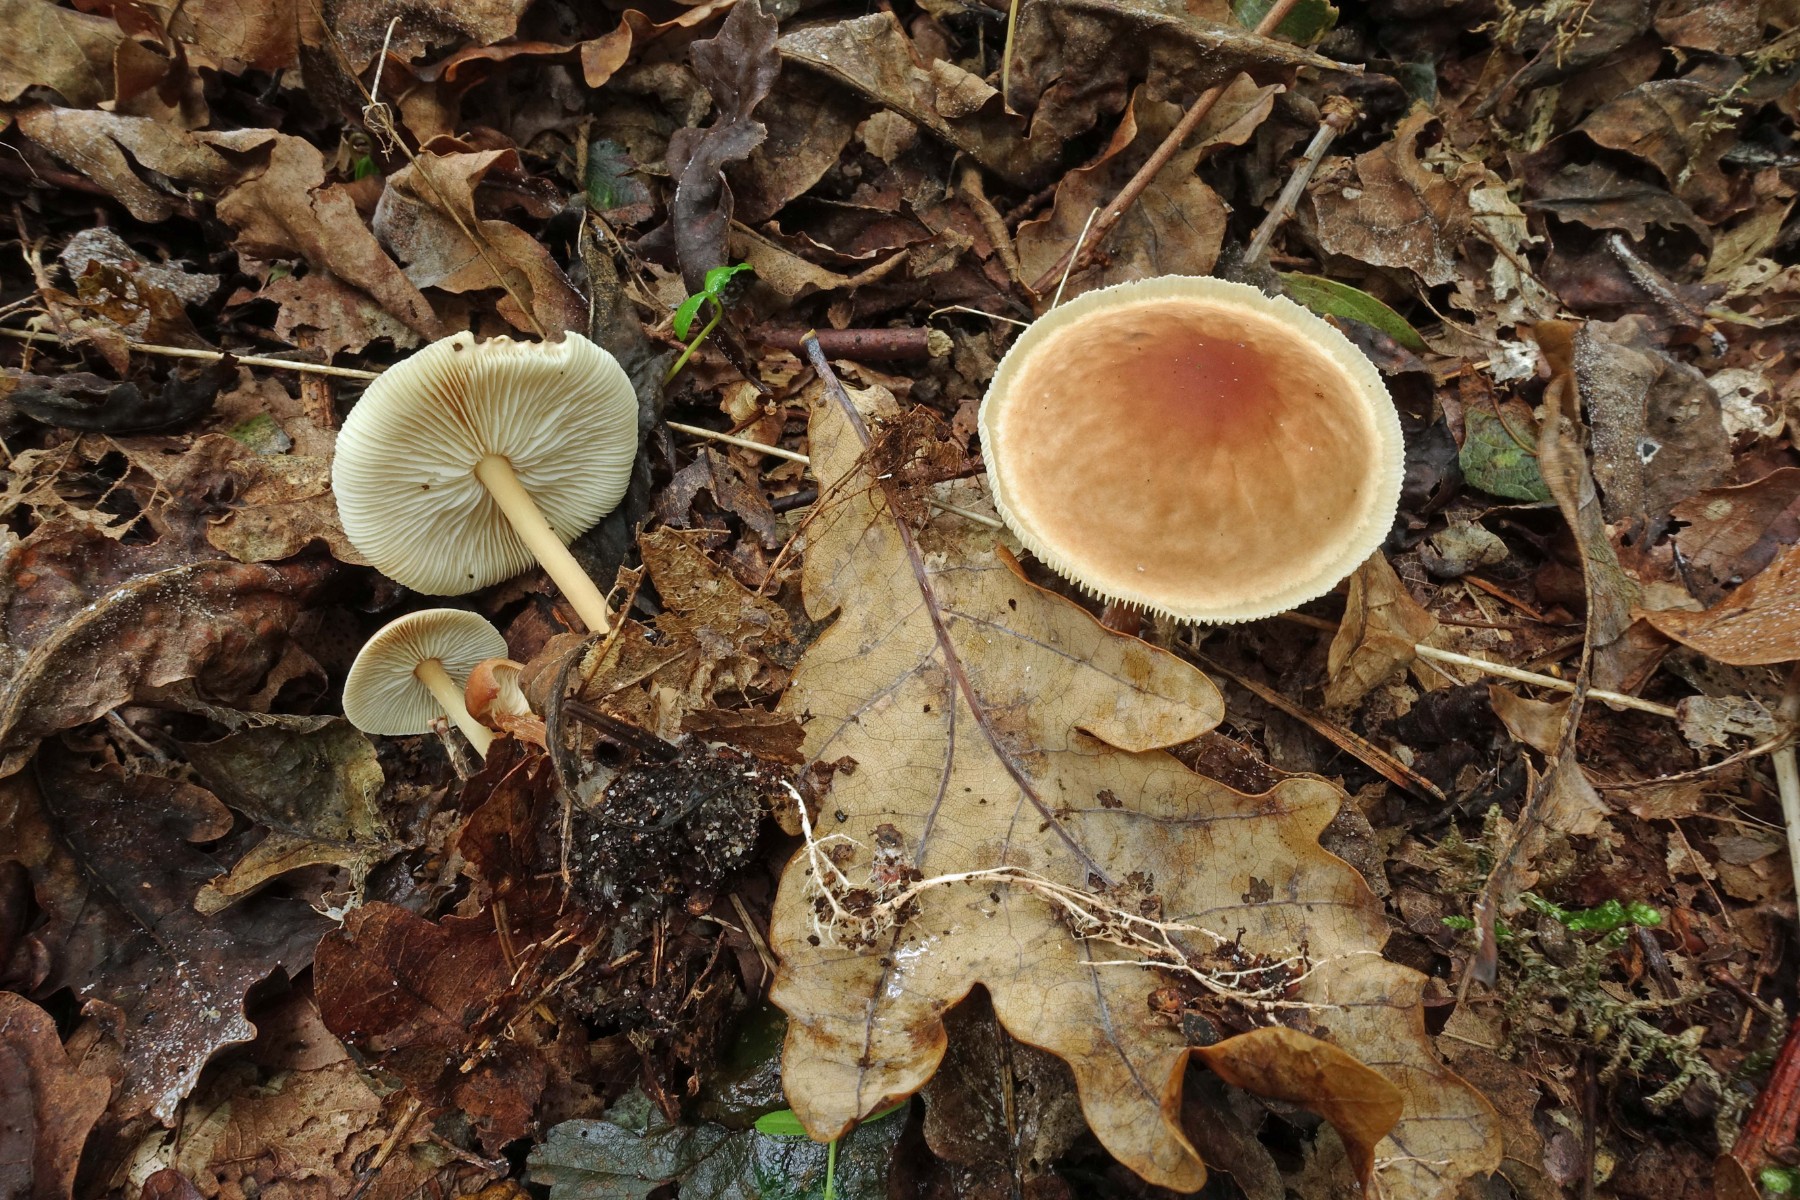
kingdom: Fungi
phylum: Basidiomycota
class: Agaricomycetes
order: Agaricales
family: Omphalotaceae
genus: Gymnopus
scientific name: Gymnopus aquosus
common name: bleg fladhat
